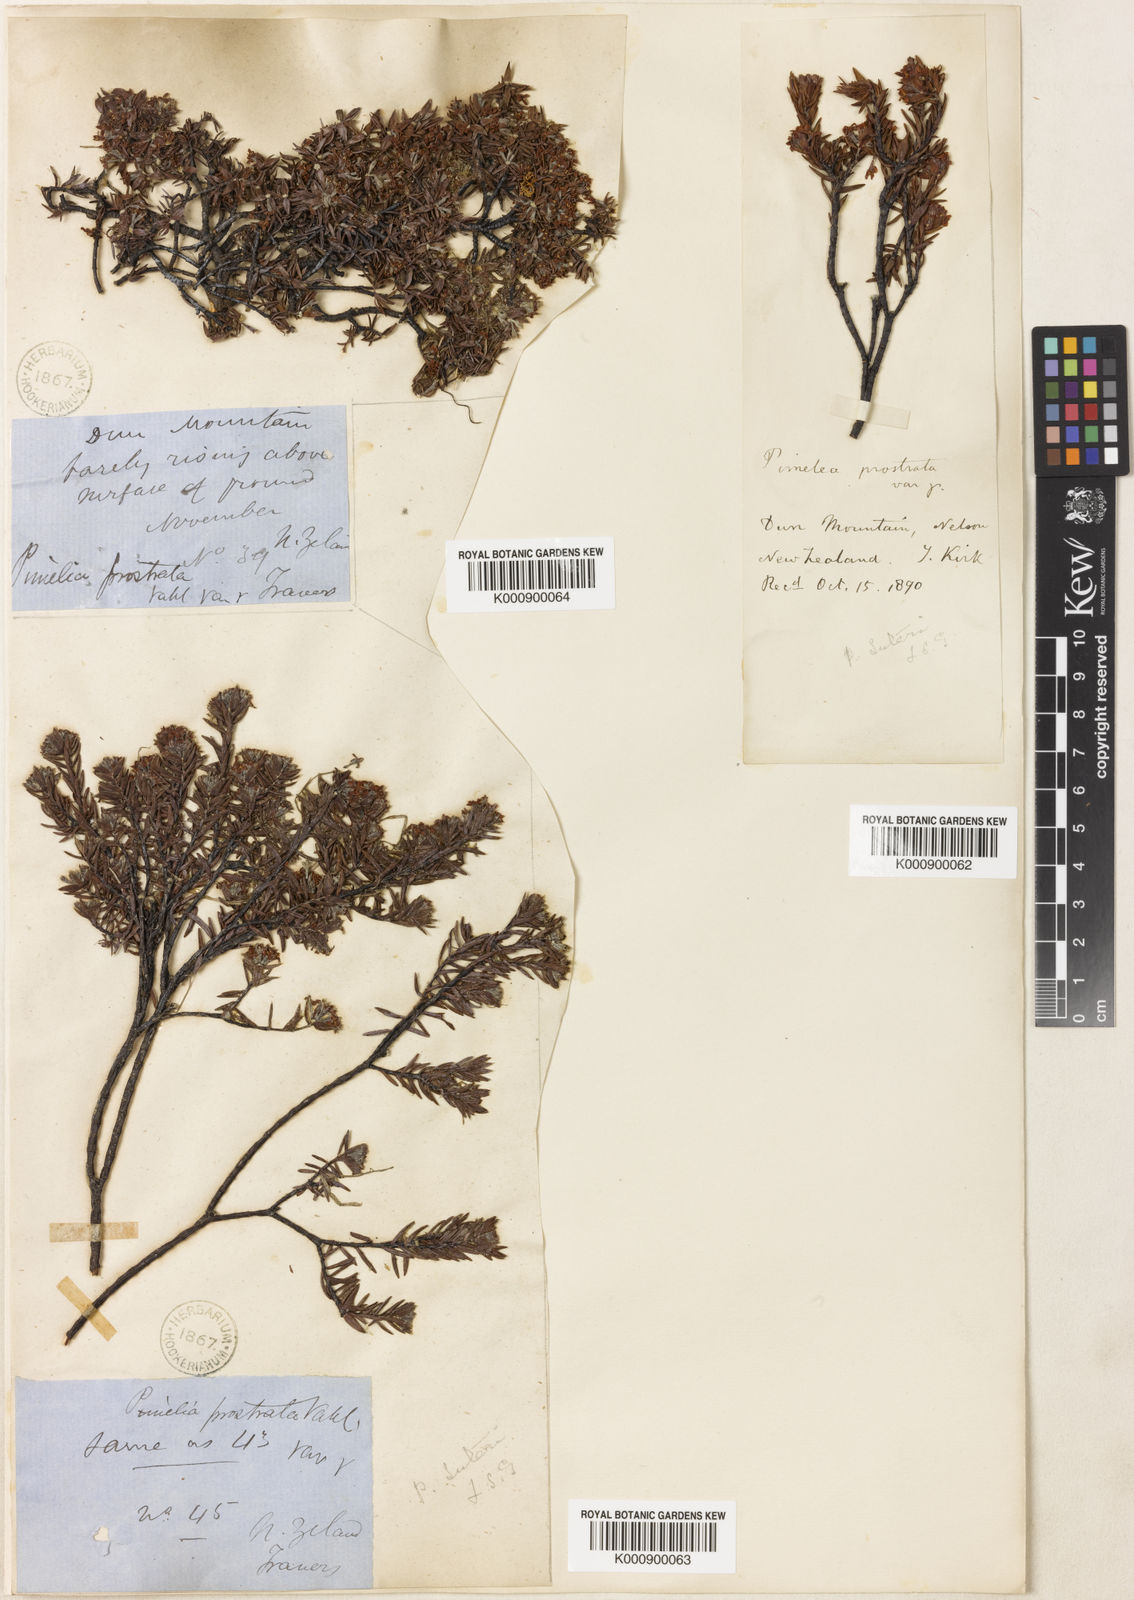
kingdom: Plantae
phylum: Tracheophyta
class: Magnoliopsida
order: Malvales
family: Thymelaeaceae
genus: Pimelea
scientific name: Pimelea oreophila
